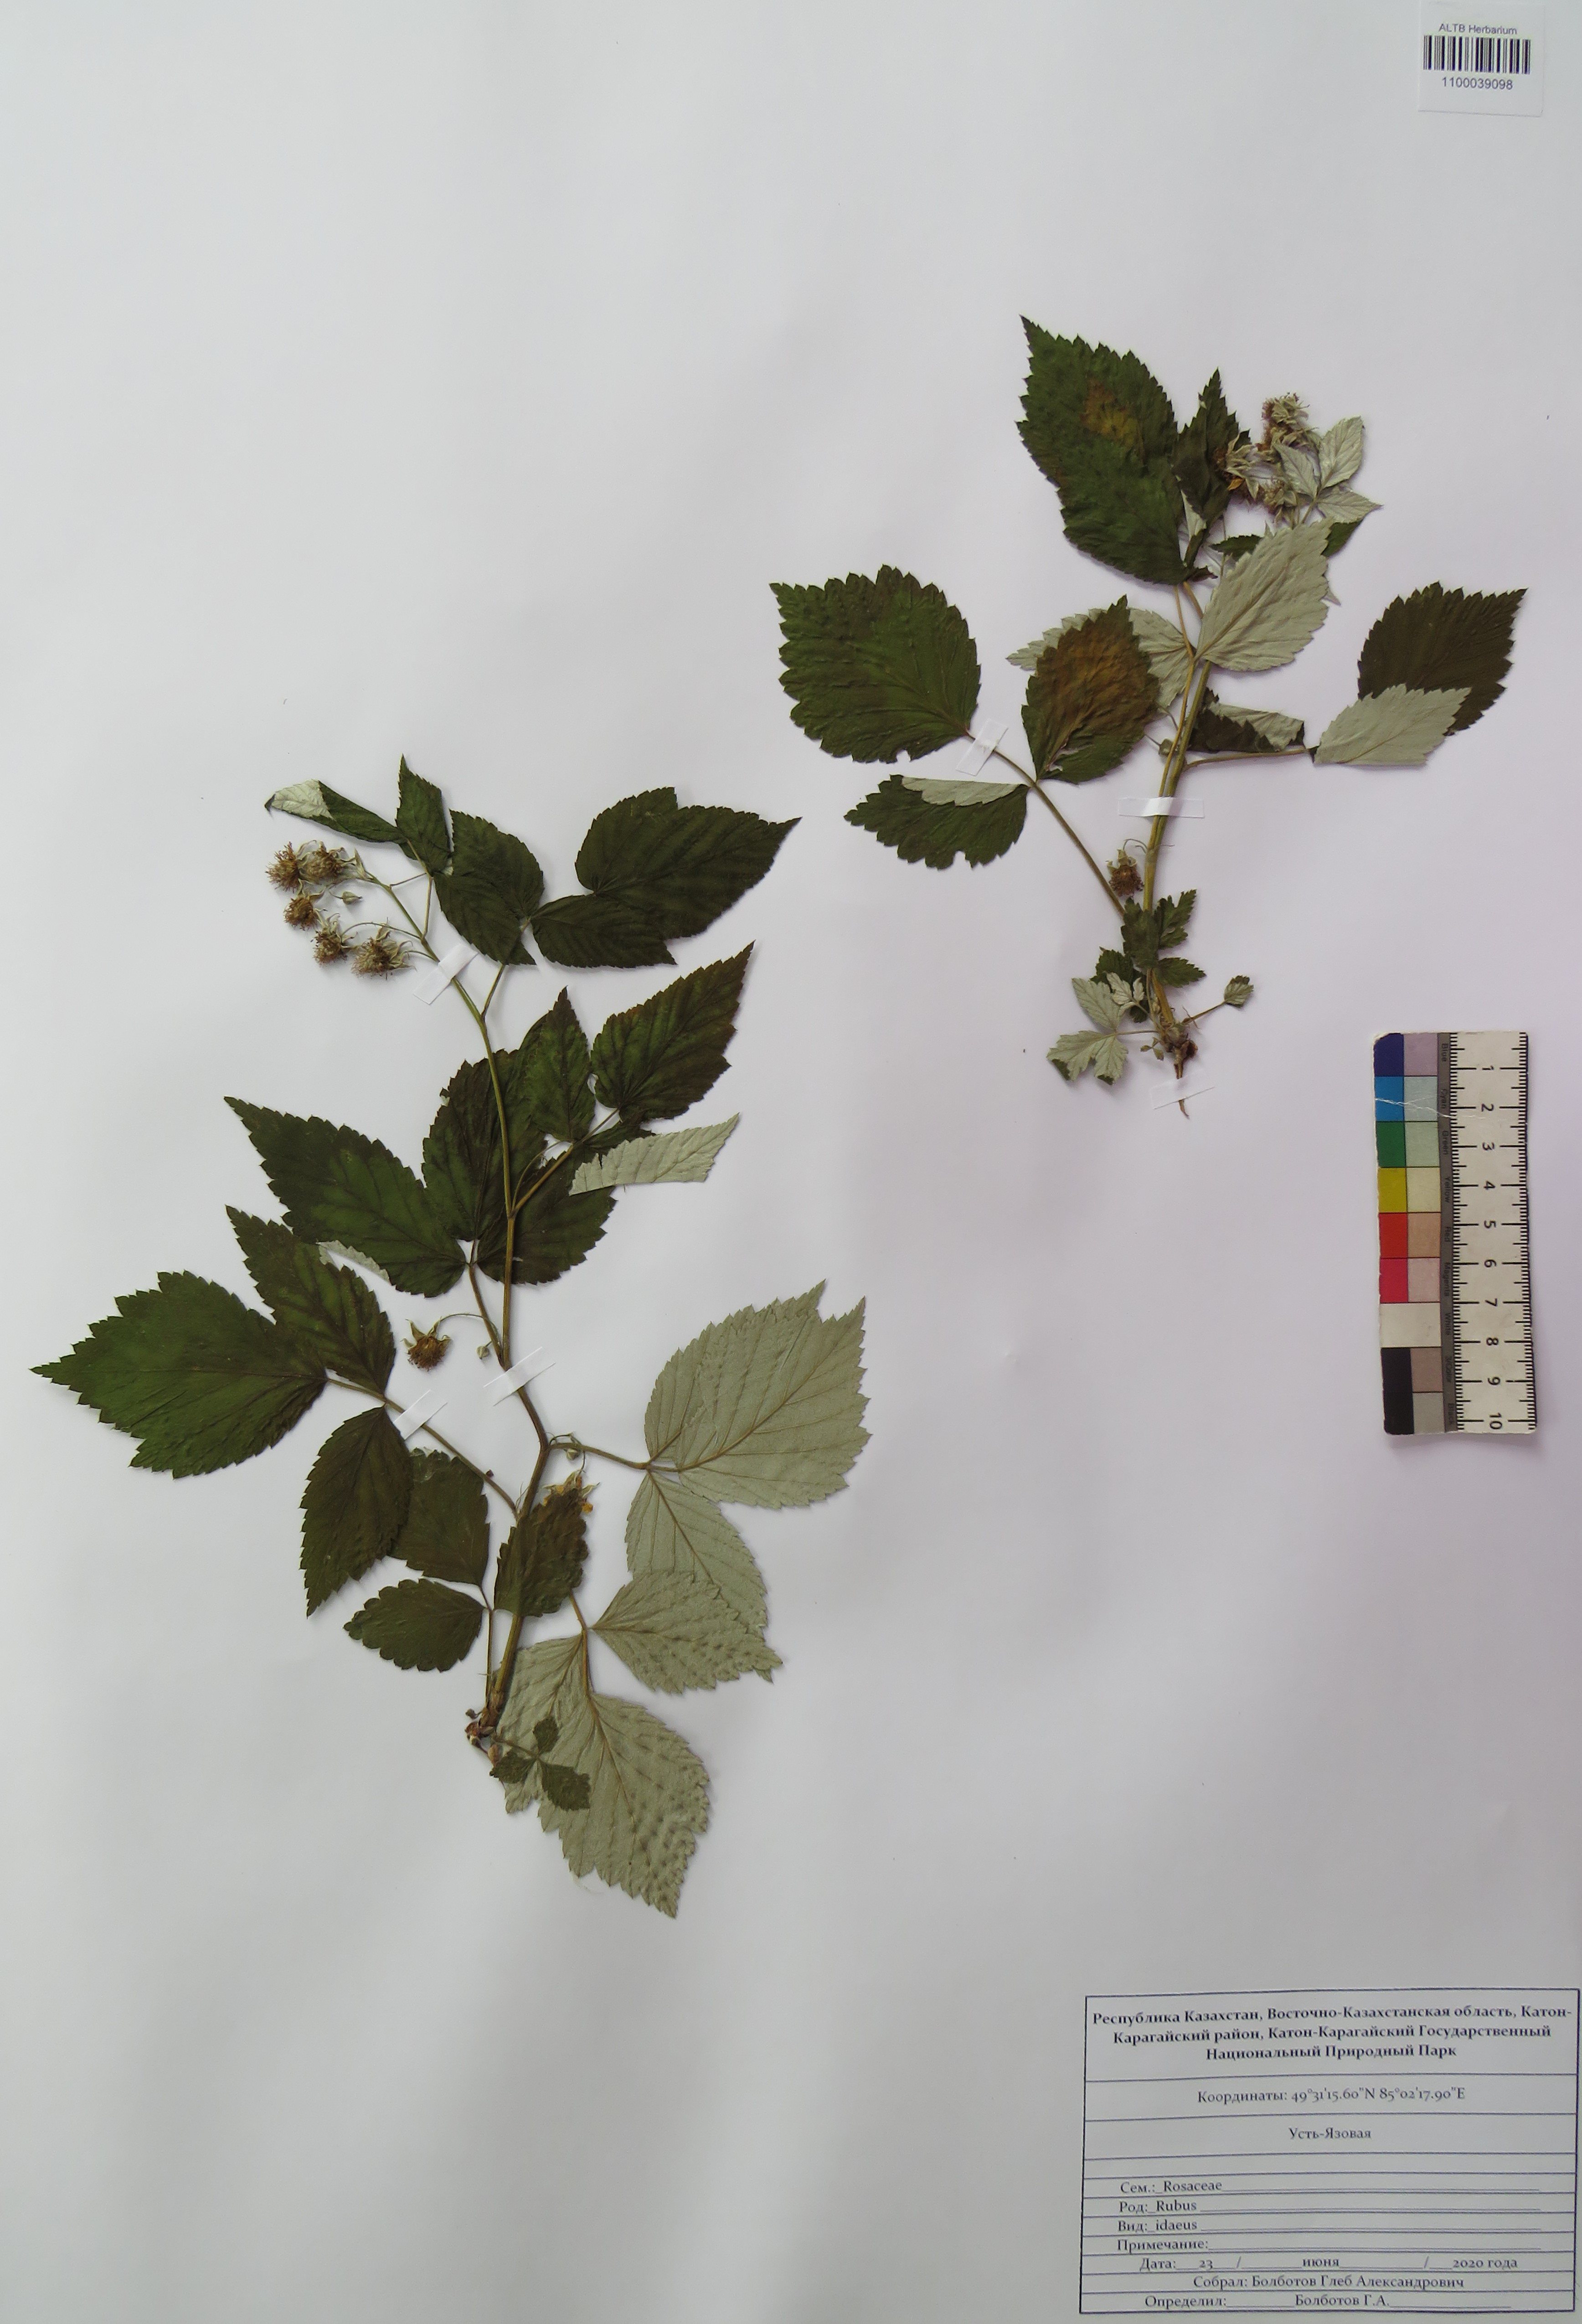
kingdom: Plantae
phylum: Tracheophyta
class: Magnoliopsida
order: Rosales
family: Rosaceae
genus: Rubus
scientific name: Rubus idaeus
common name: Raspberry
